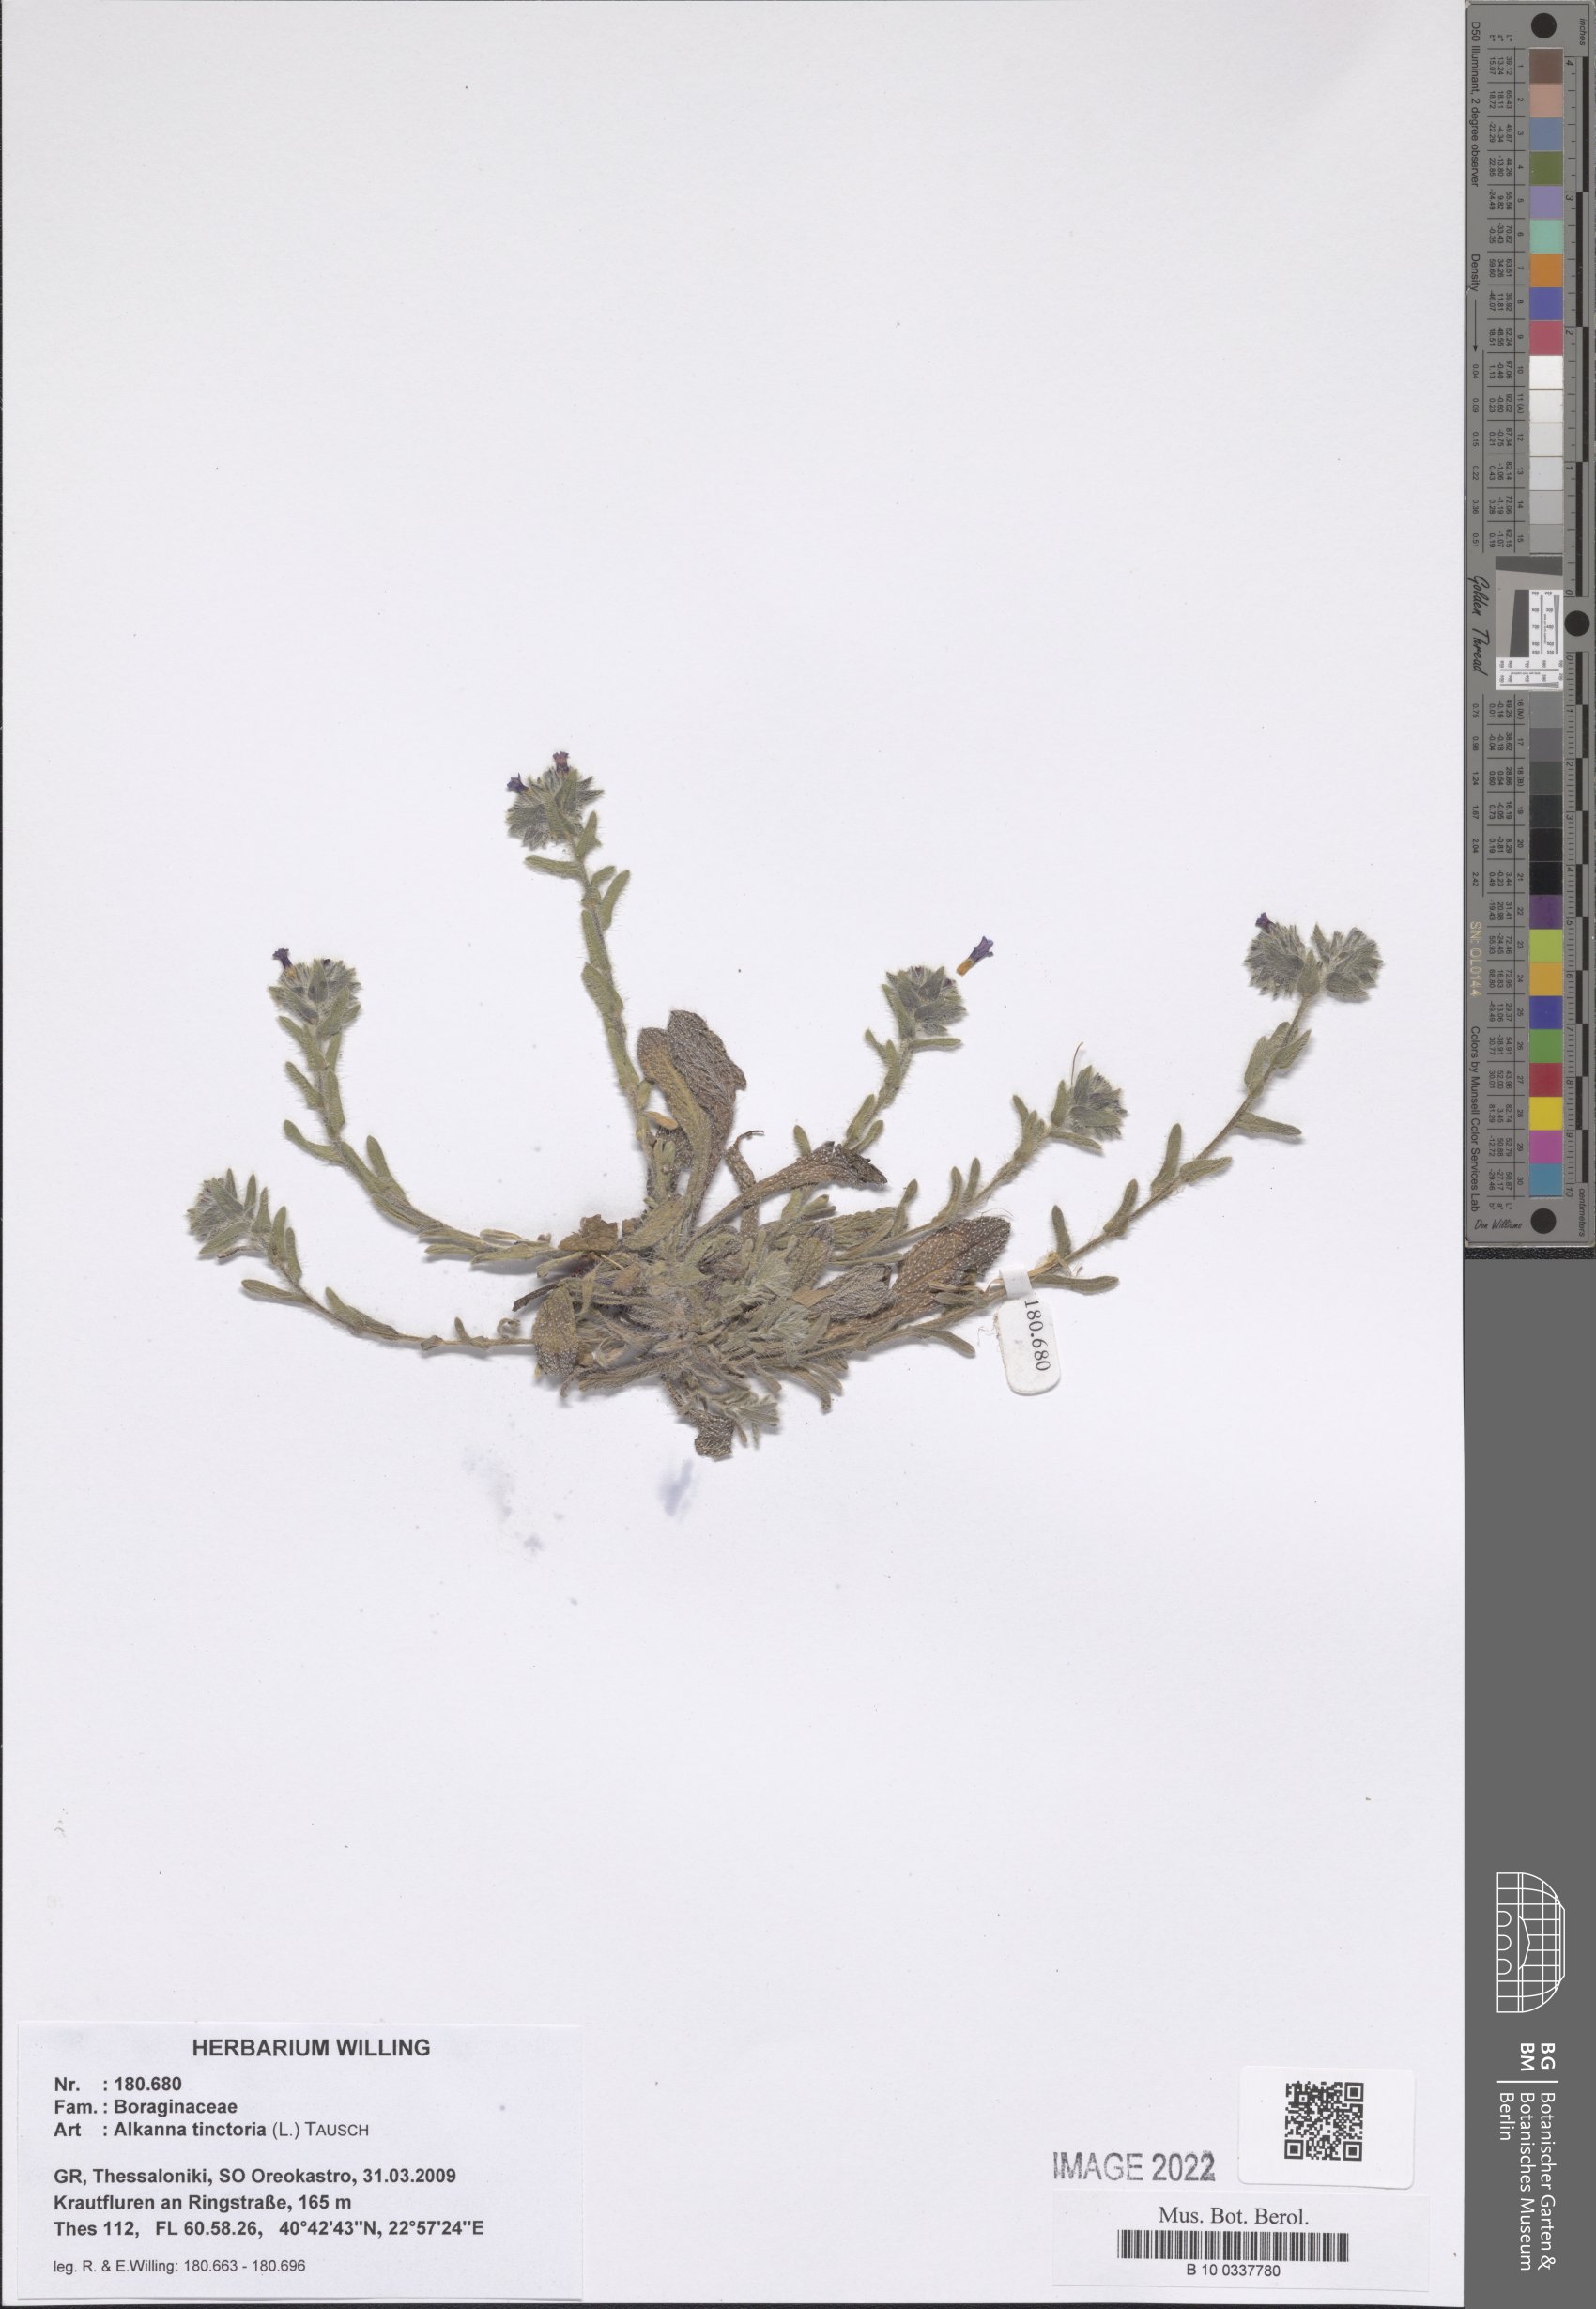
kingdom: Plantae
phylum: Tracheophyta
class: Magnoliopsida
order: Boraginales
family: Boraginaceae
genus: Alkanna
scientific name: Alkanna tinctoria
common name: Dyer's-alkanet
